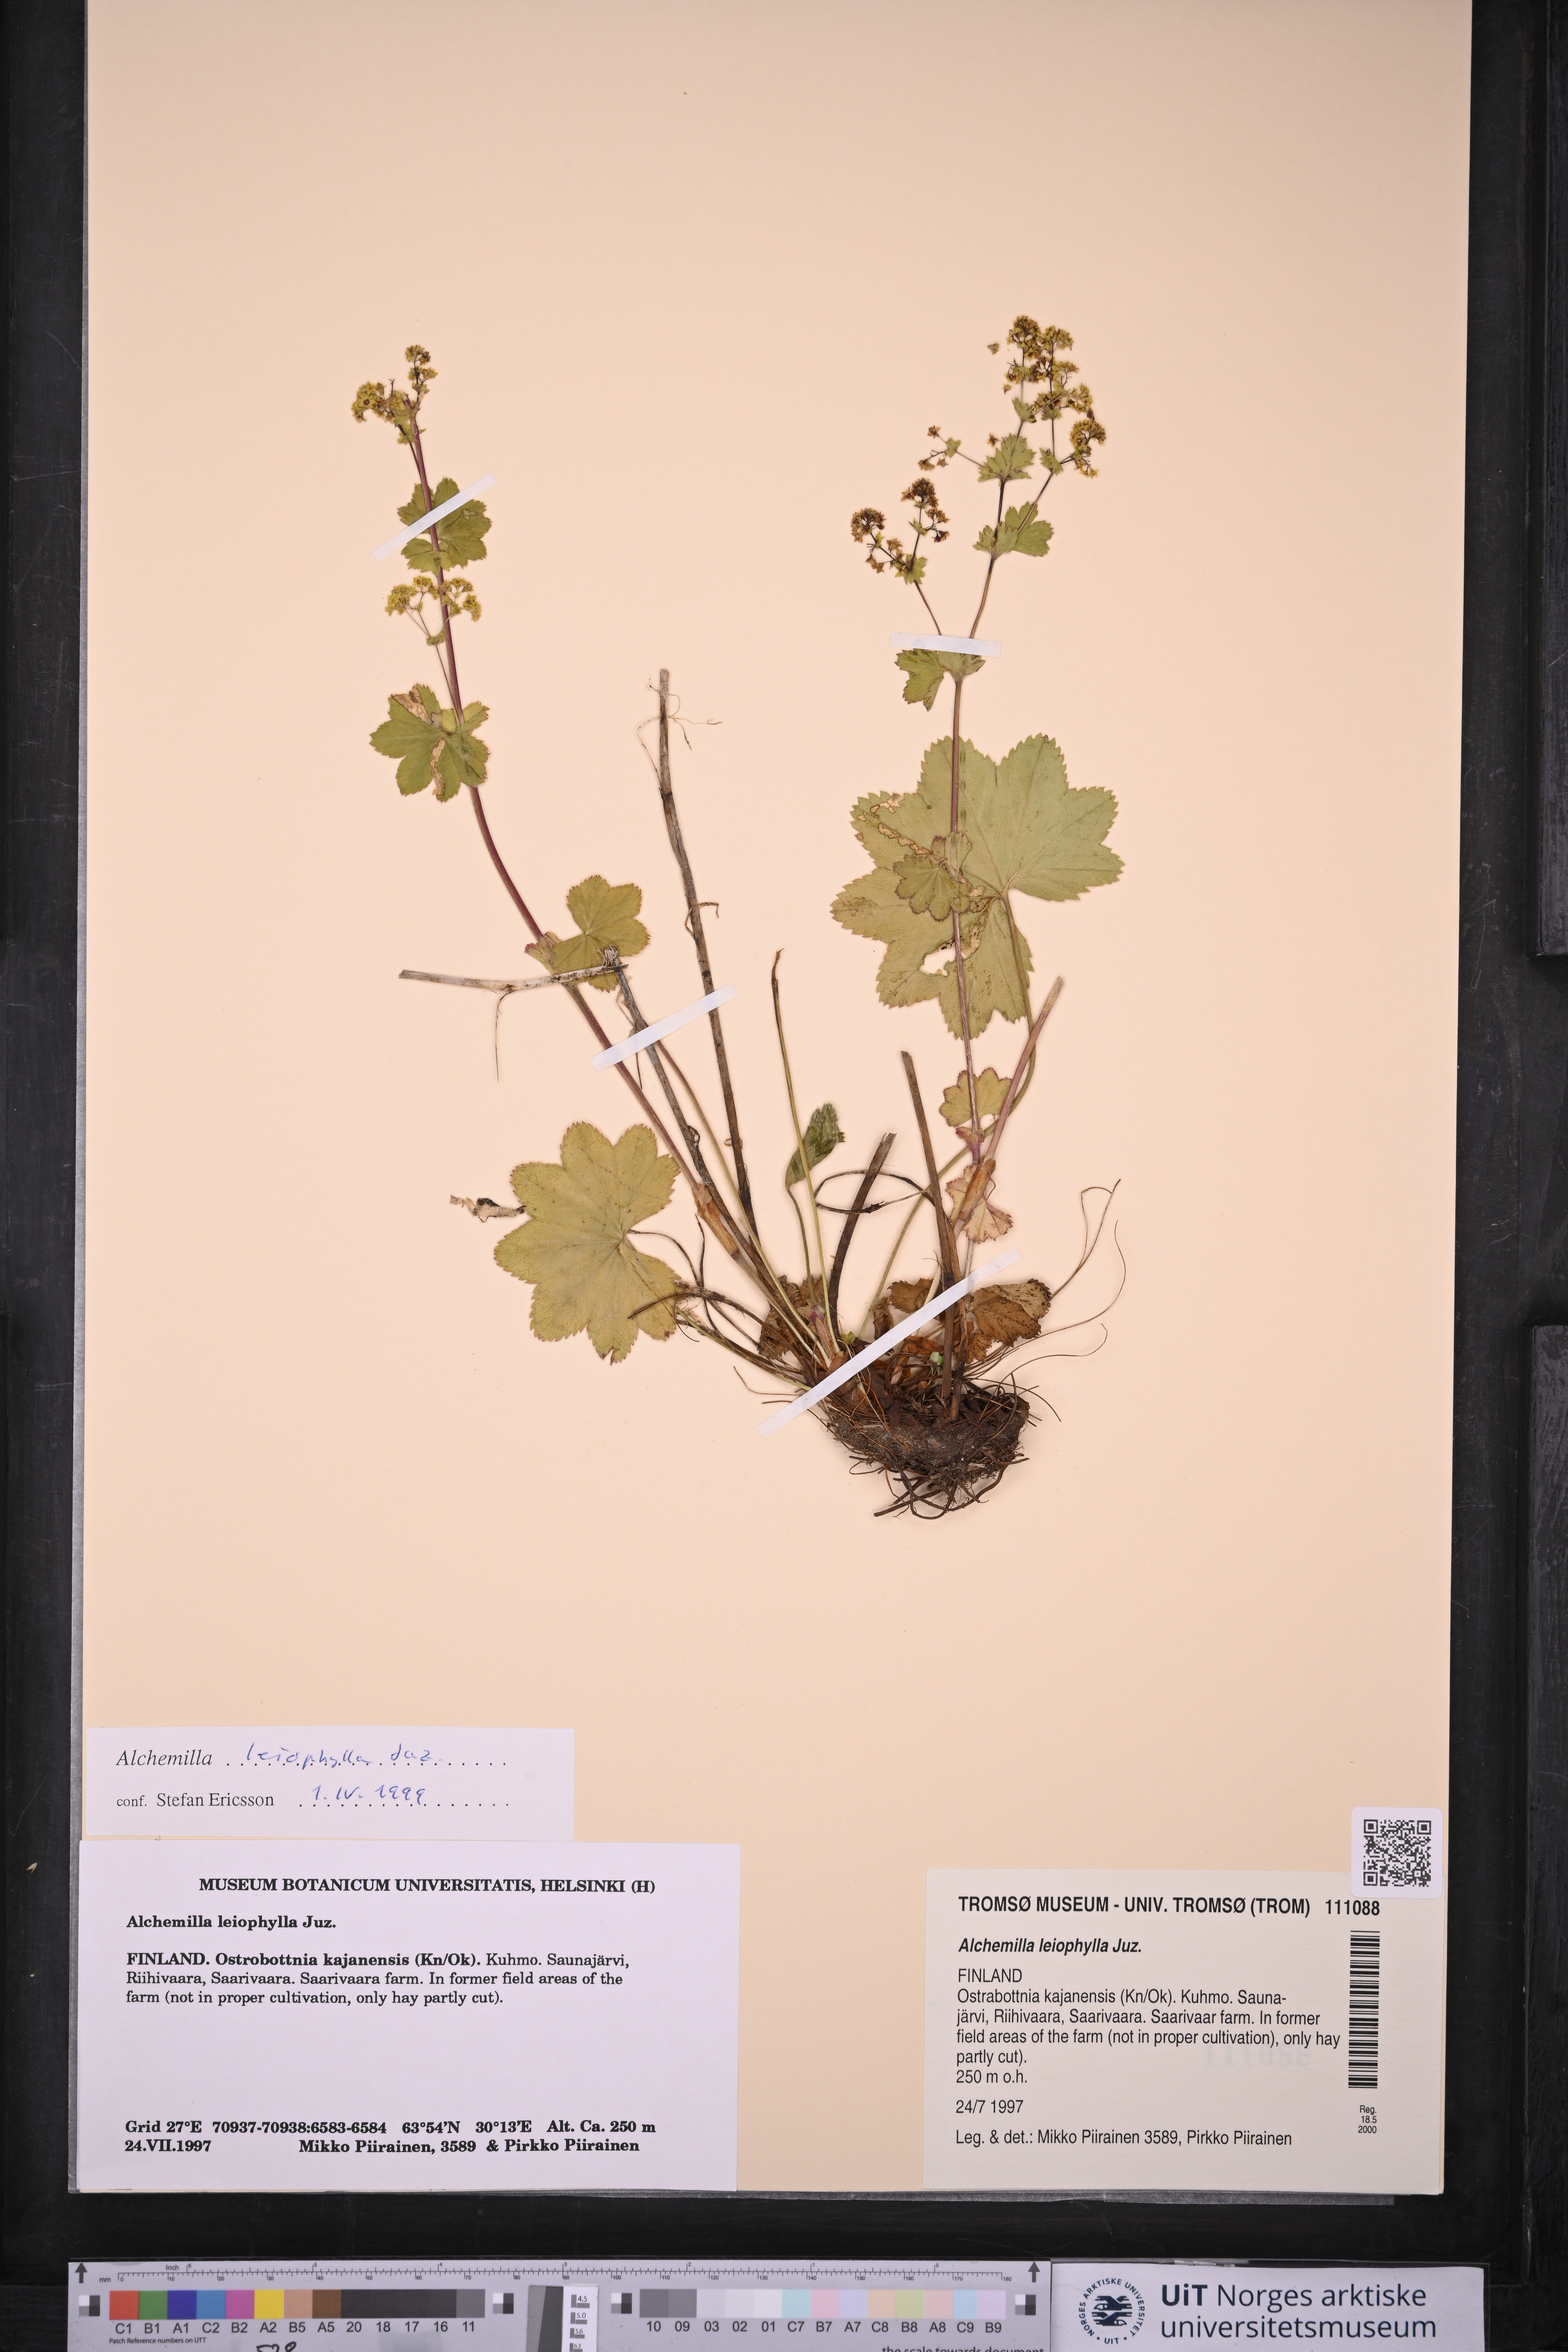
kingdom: Plantae
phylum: Tracheophyta
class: Magnoliopsida
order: Rosales
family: Rosaceae
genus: Alchemilla
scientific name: Alchemilla leiophylla
